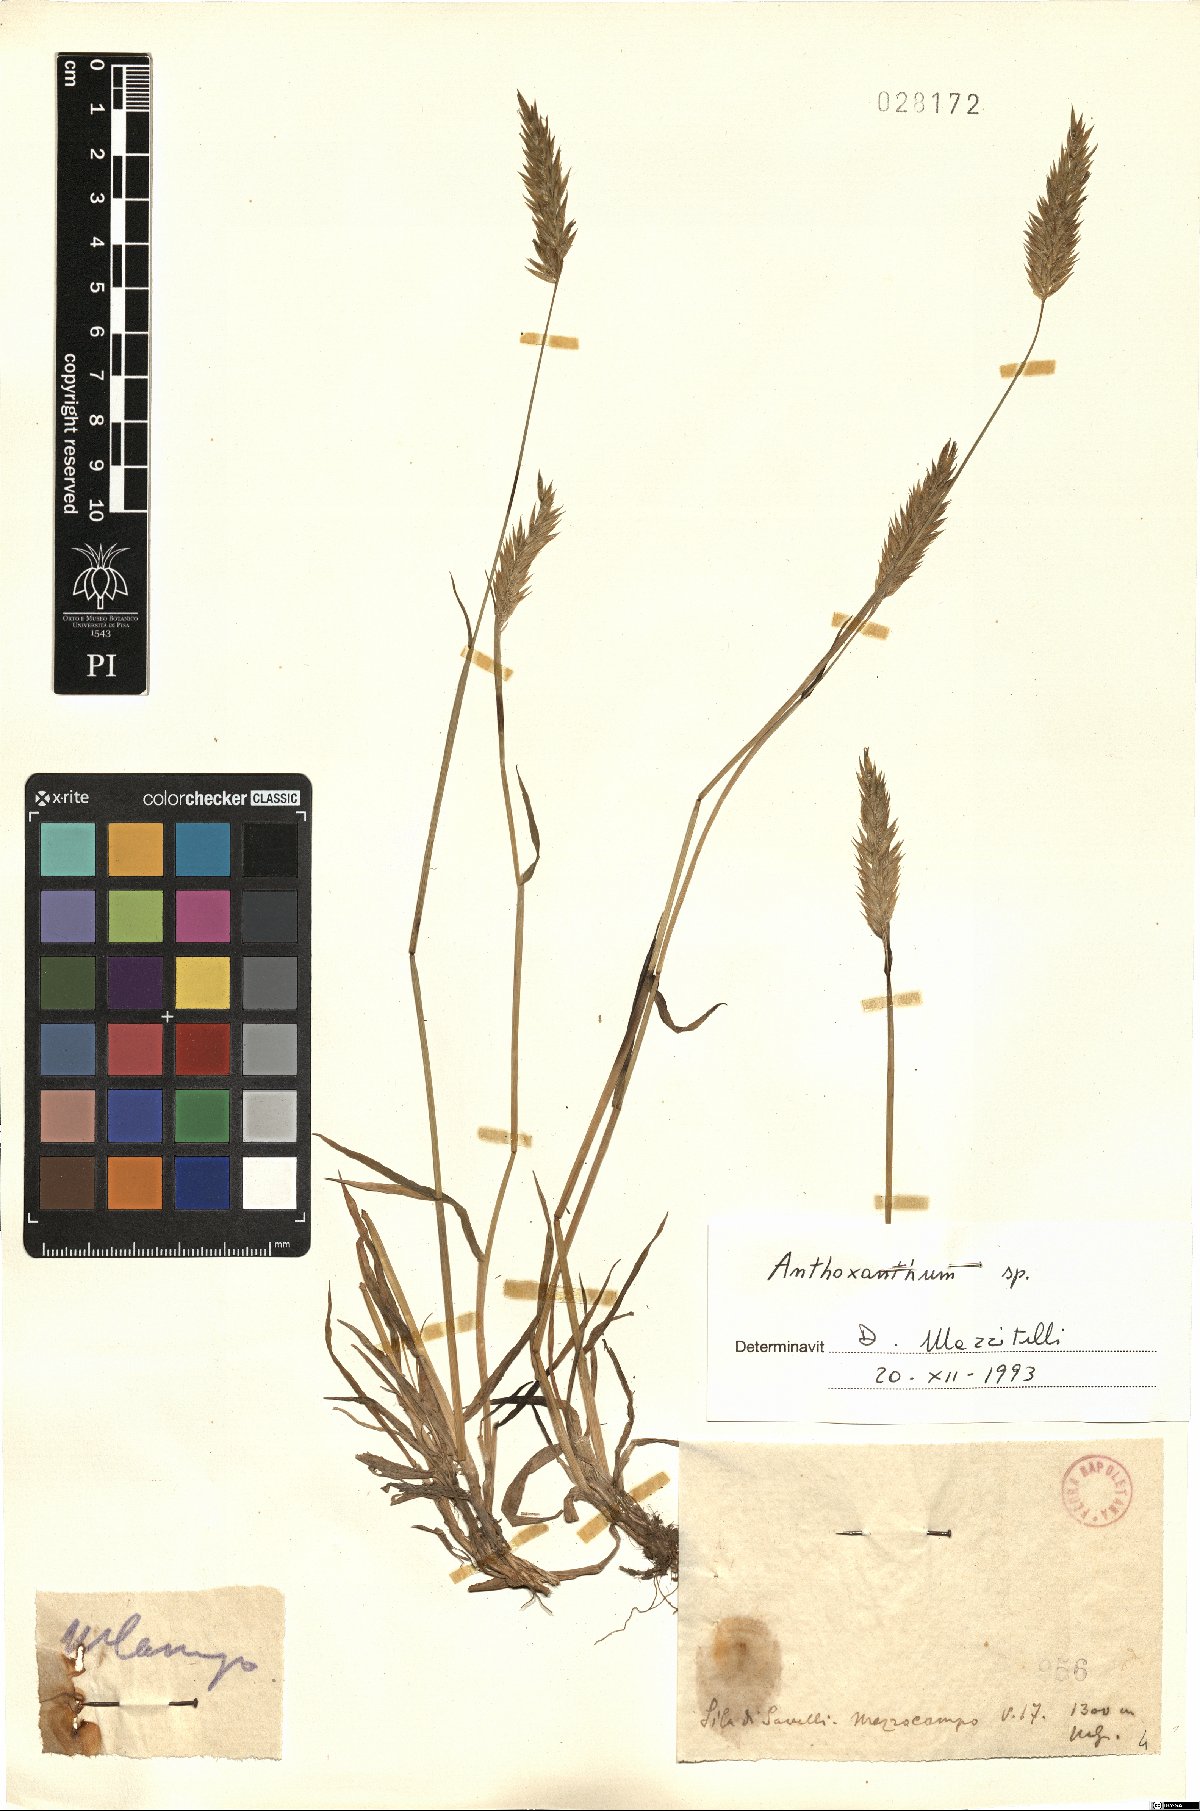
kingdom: Plantae
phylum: Tracheophyta
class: Liliopsida
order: Poales
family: Poaceae
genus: Anthoxanthum
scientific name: Anthoxanthum
